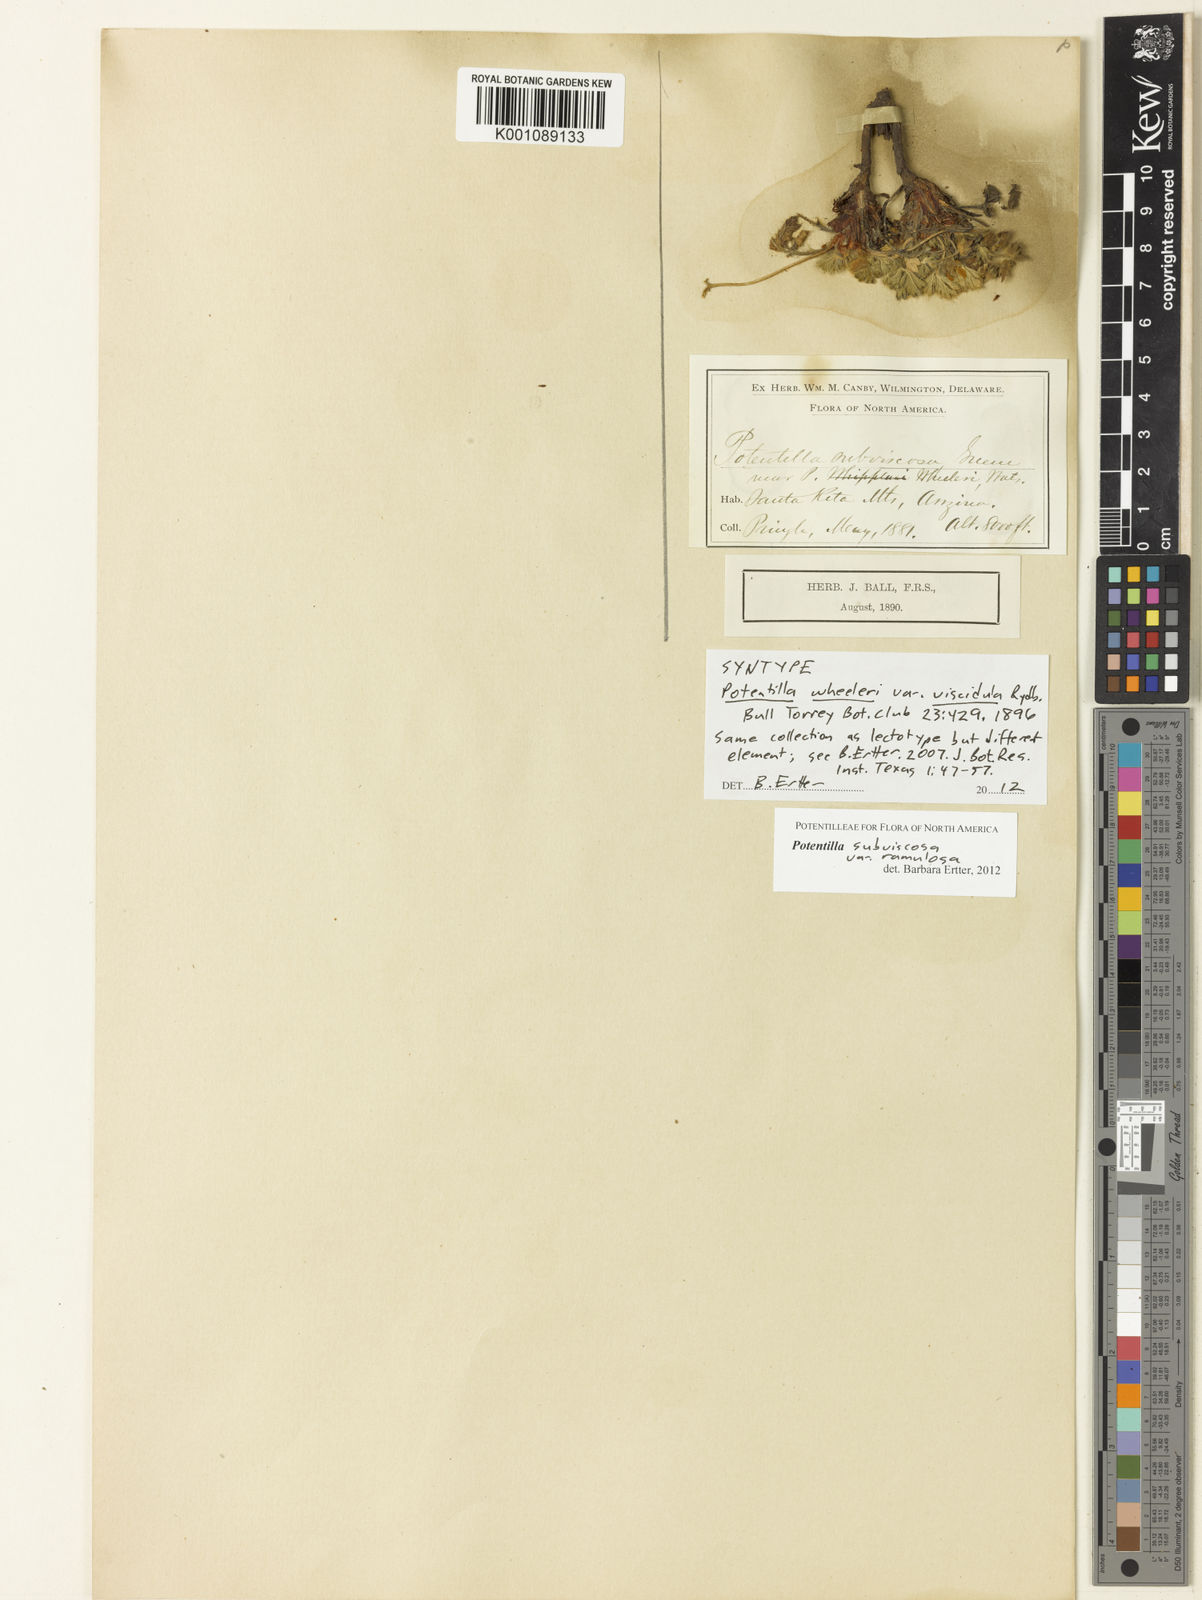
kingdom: Plantae
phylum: Tracheophyta
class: Magnoliopsida
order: Rosales
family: Rosaceae
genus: Potentilla
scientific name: Potentilla wheeleri
